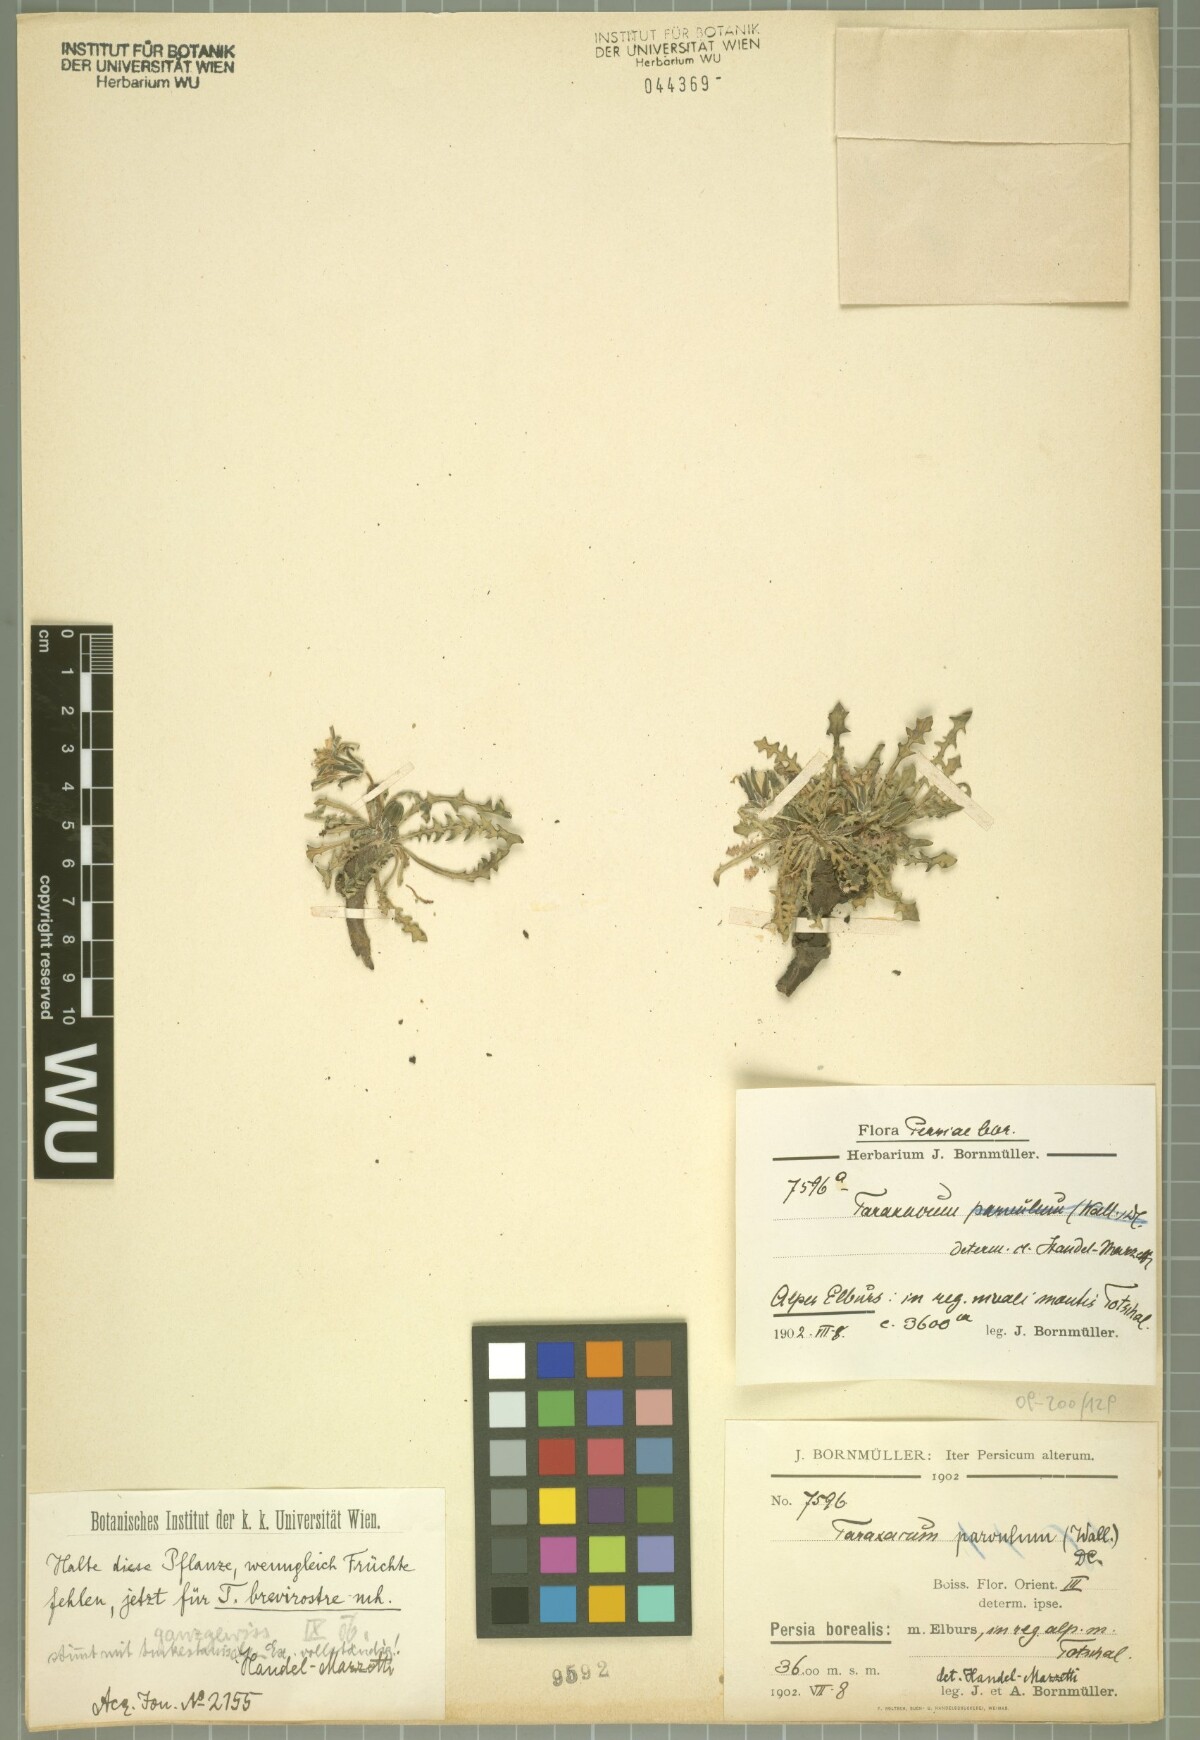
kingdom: Plantae
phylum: Tracheophyta
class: Magnoliopsida
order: Asterales
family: Asteraceae
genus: Taraxacum
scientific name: Taraxacum brevirostre
